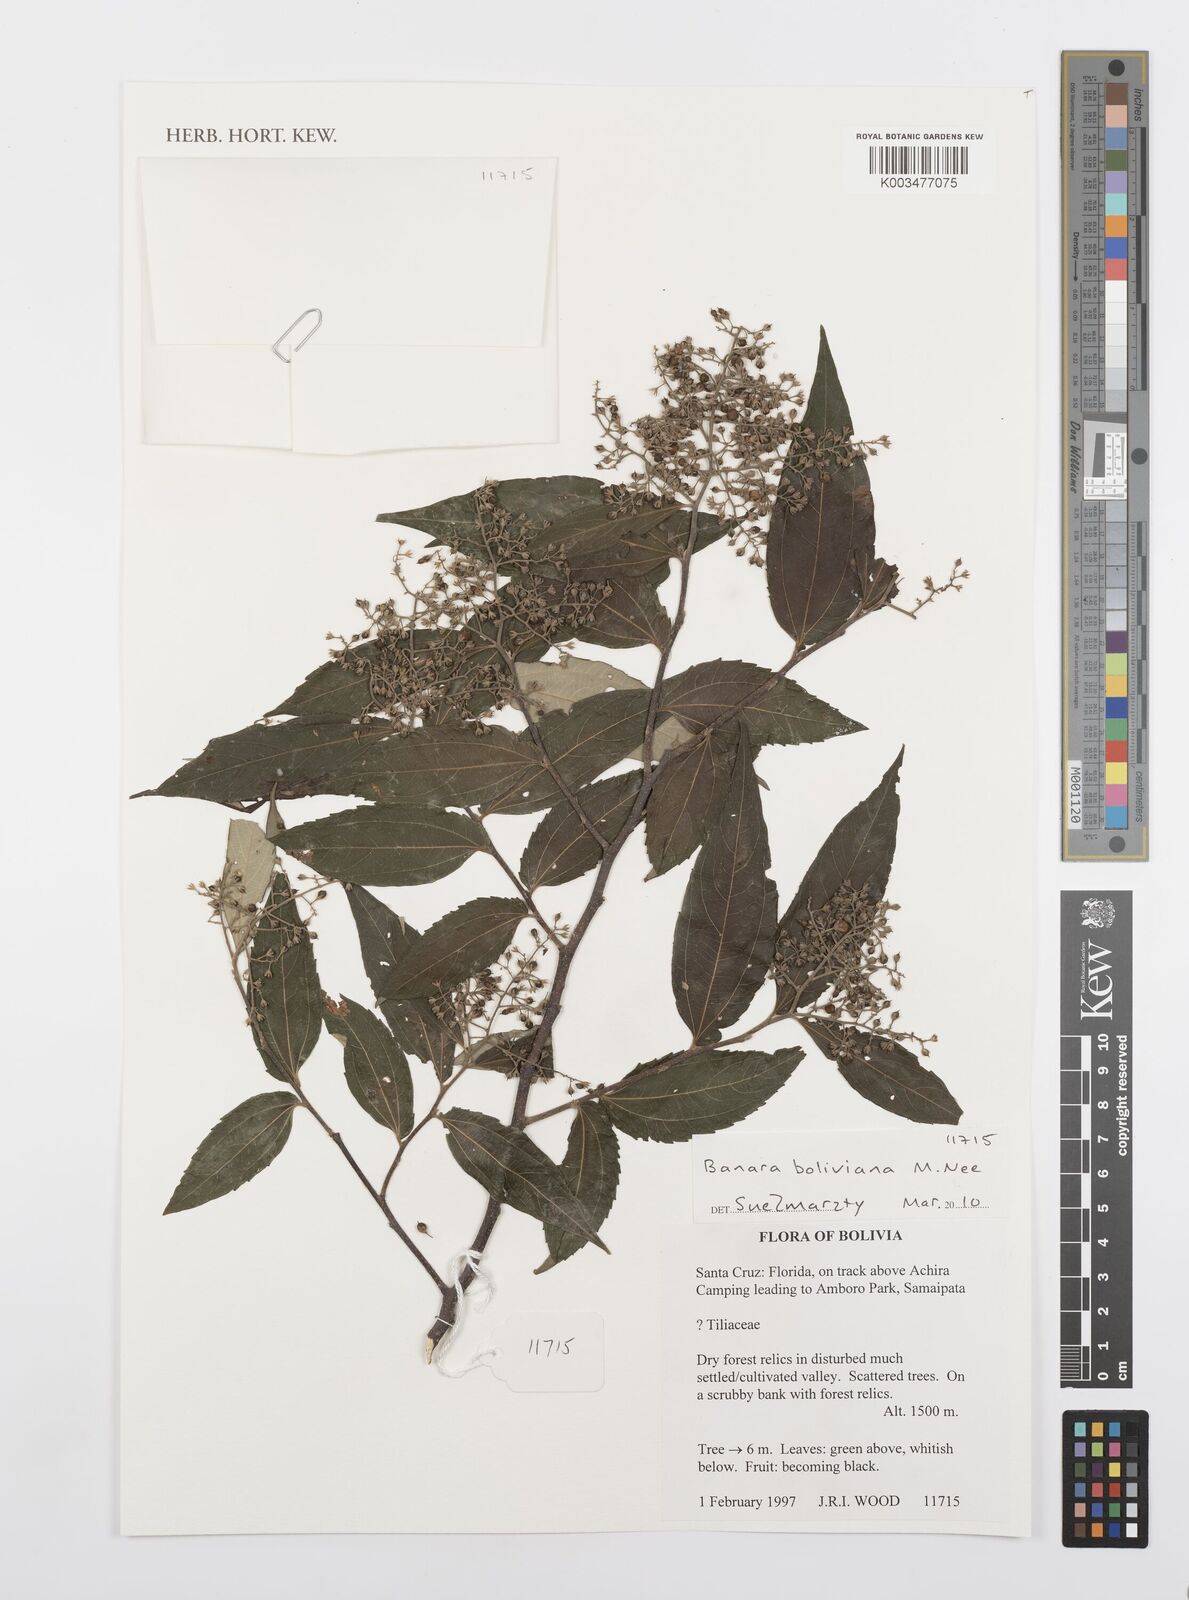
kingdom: Plantae
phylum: Tracheophyta
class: Magnoliopsida
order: Malpighiales
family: Salicaceae
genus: Banara
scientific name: Banara boliviana
